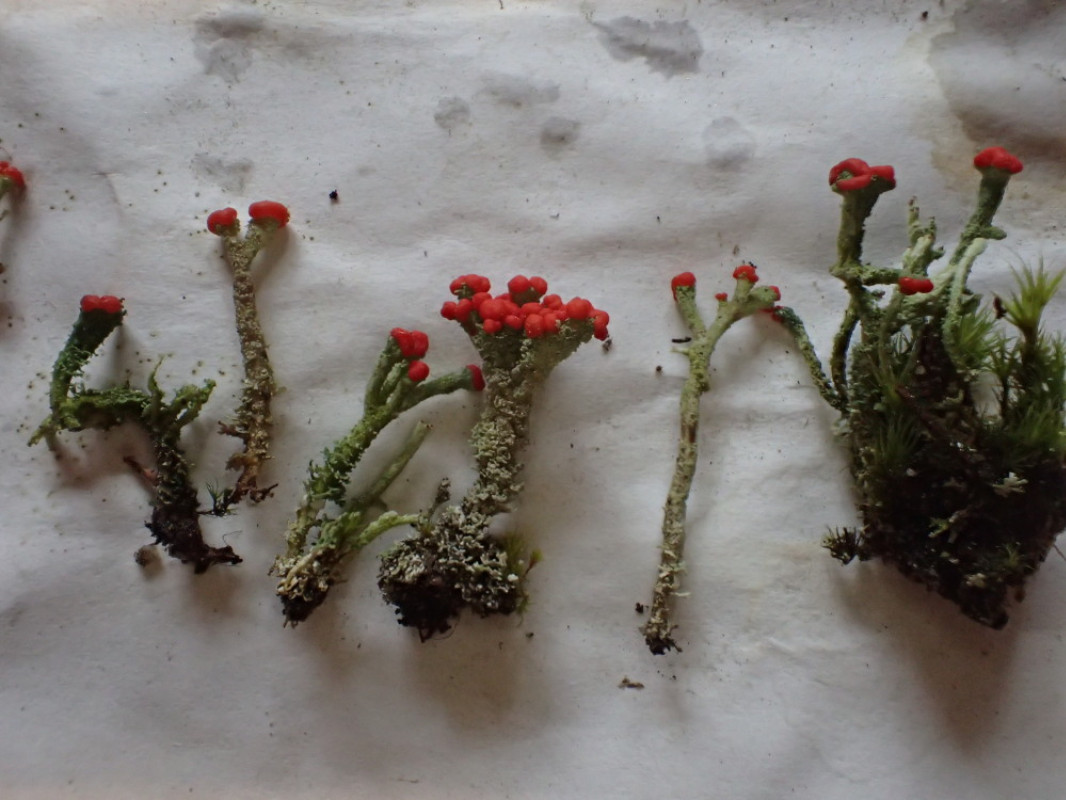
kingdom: Fungi
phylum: Ascomycota
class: Lecanoromycetes
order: Lecanorales
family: Cladoniaceae
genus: Cladonia
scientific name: Cladonia floerkeana
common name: lakrød bægerlav
